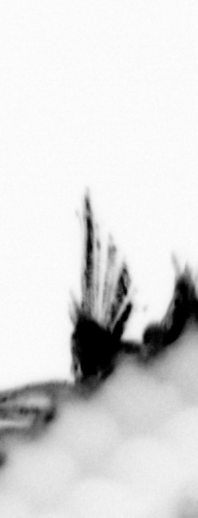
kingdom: Animalia
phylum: Annelida
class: Polychaeta
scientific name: Polychaeta
